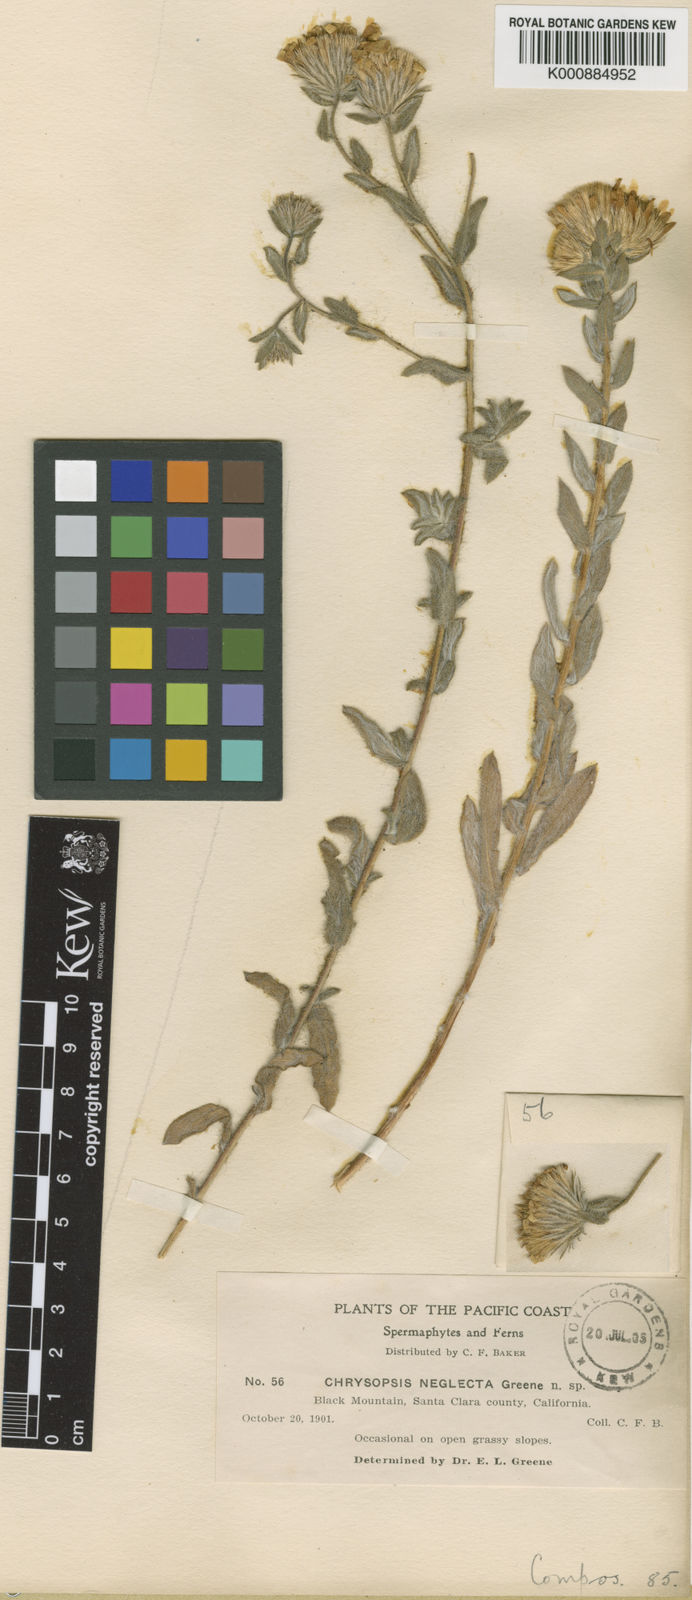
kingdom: Plantae
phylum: Tracheophyta
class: Magnoliopsida
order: Asterales
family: Asteraceae
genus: Heterotheca
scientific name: Heterotheca
